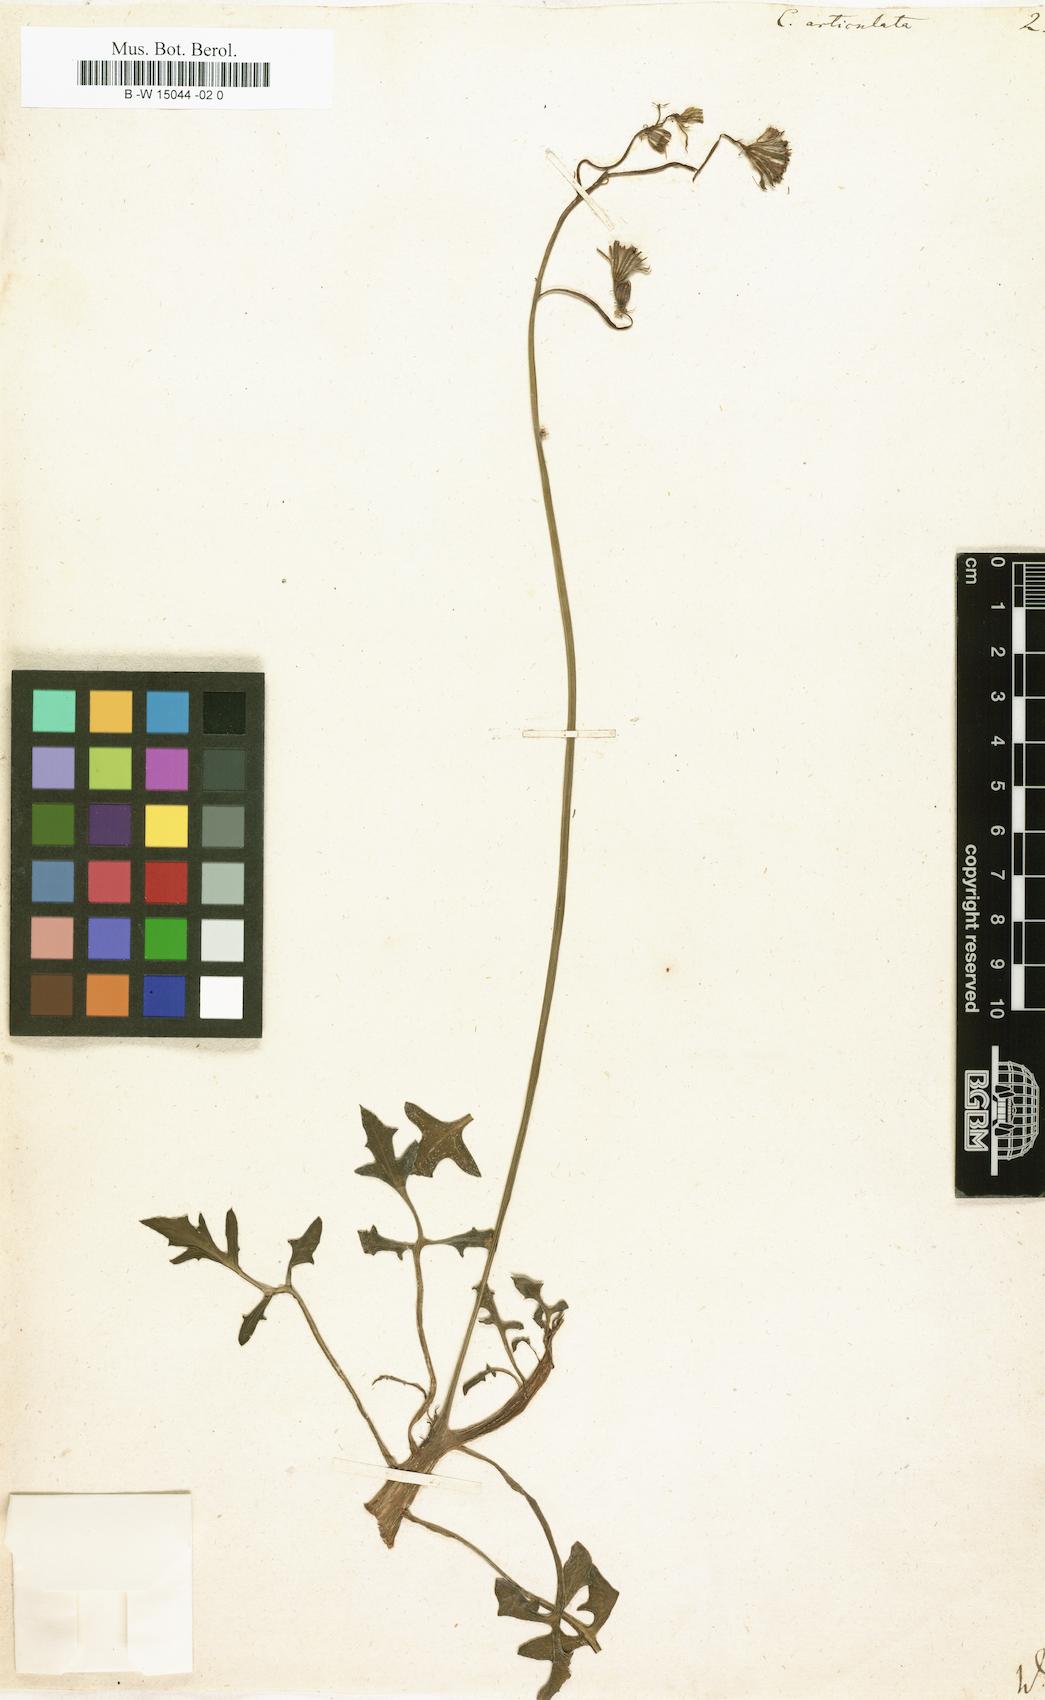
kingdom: Plantae
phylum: Tracheophyta
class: Magnoliopsida
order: Asterales
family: Asteraceae
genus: Curio
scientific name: Curio articulatus
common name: Candleplant
